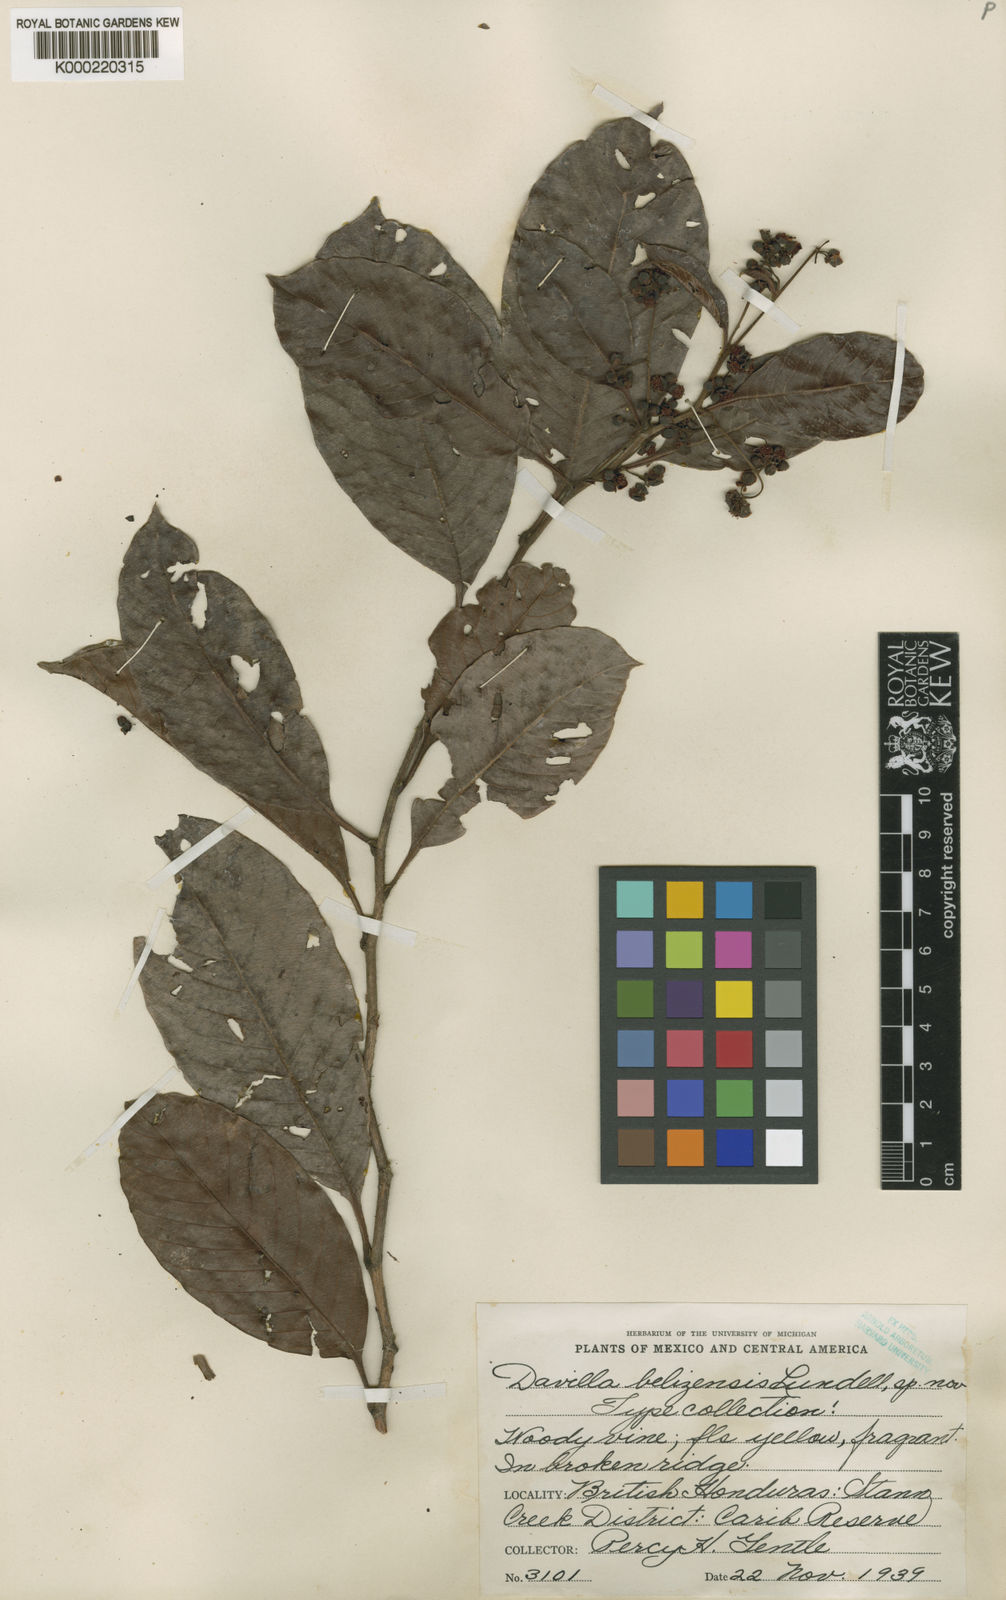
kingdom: Plantae
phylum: Tracheophyta
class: Magnoliopsida
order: Dilleniales
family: Dilleniaceae
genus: Davilla
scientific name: Davilla
